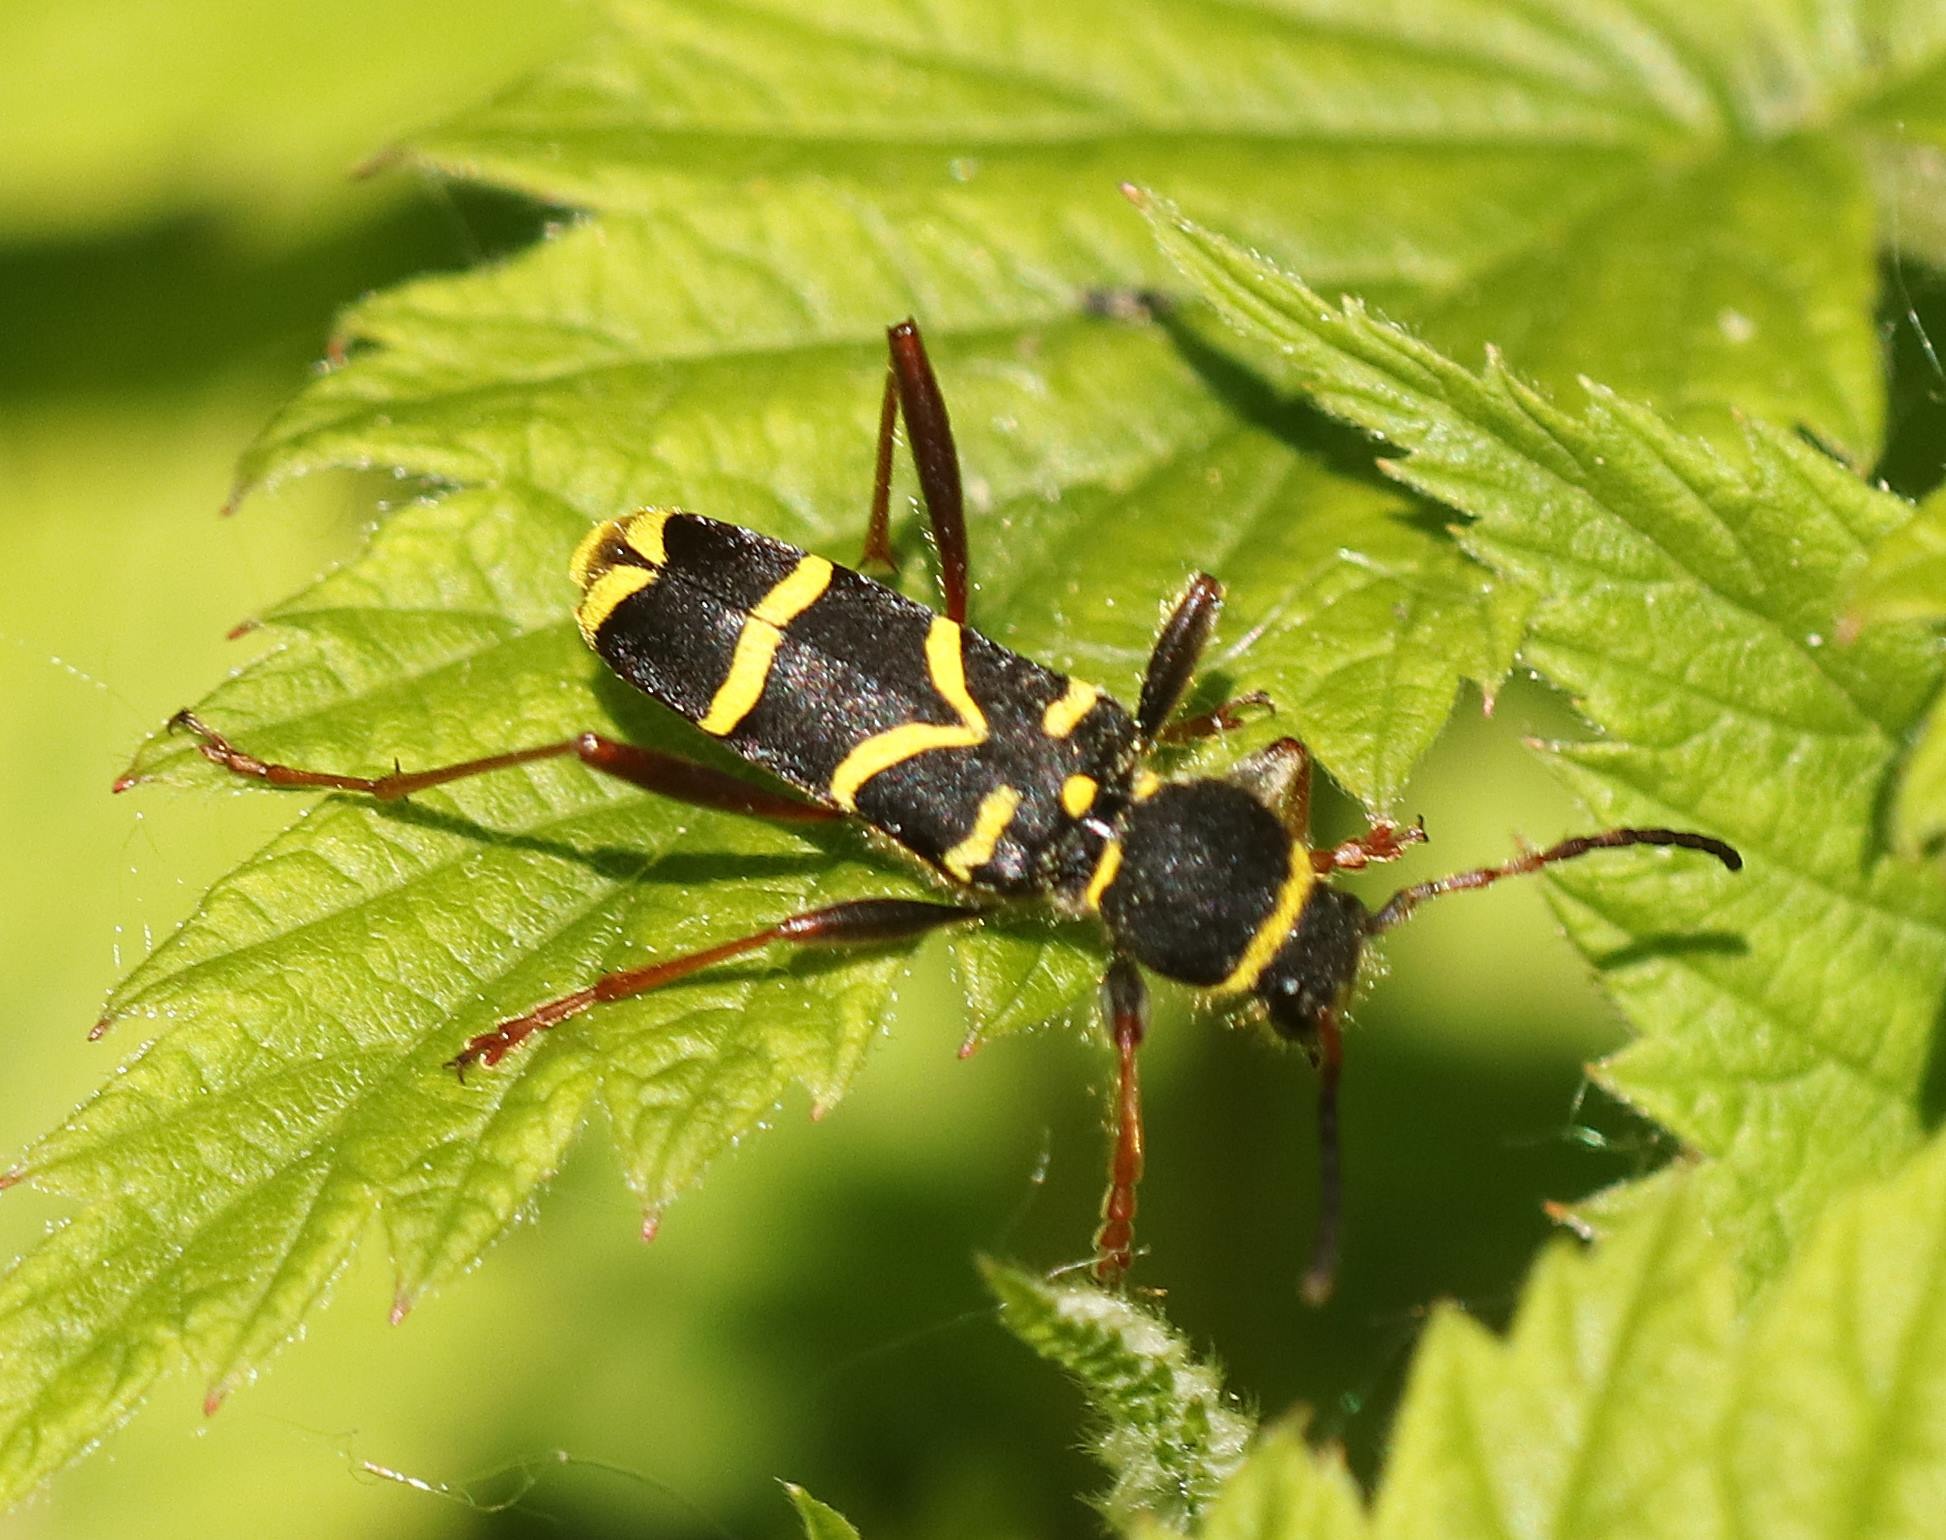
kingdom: Animalia
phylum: Arthropoda
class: Insecta
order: Coleoptera
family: Cerambycidae
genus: Clytus
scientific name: Clytus arietis
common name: Lille hvepsebuk
